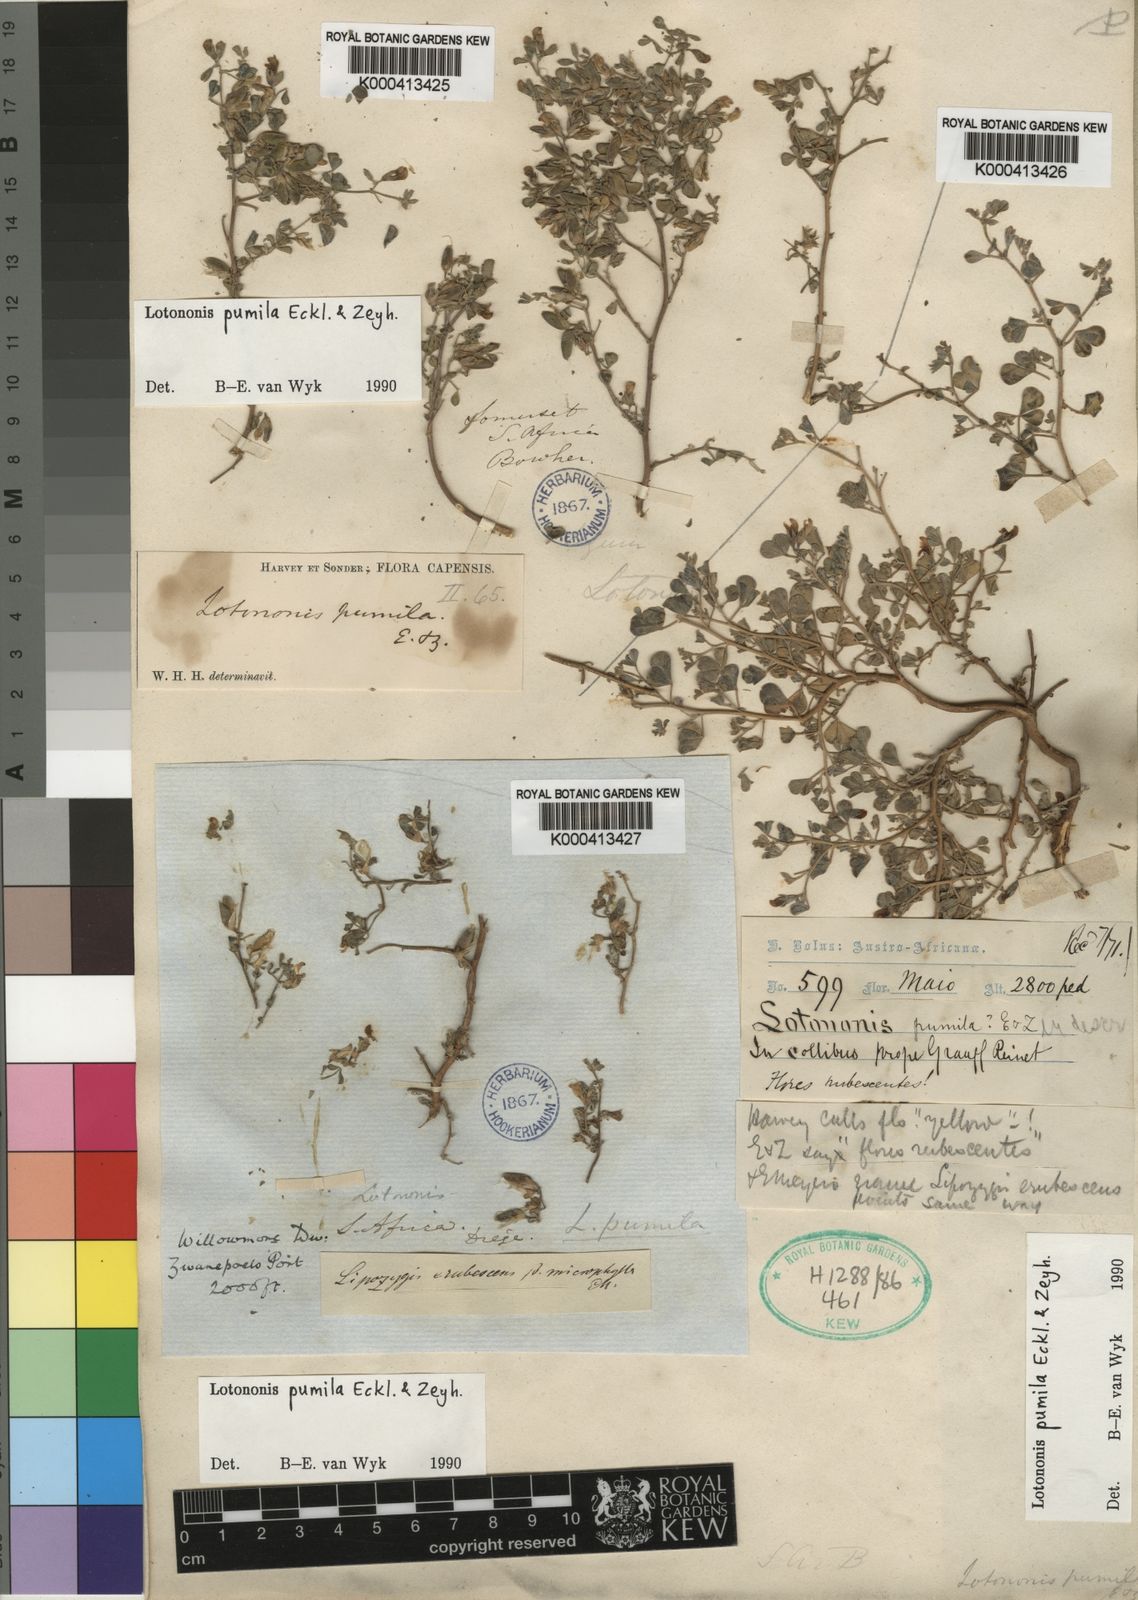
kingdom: Plantae
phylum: Tracheophyta
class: Magnoliopsida
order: Fabales
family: Fabaceae
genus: Lotononis
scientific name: Lotononis pumila
